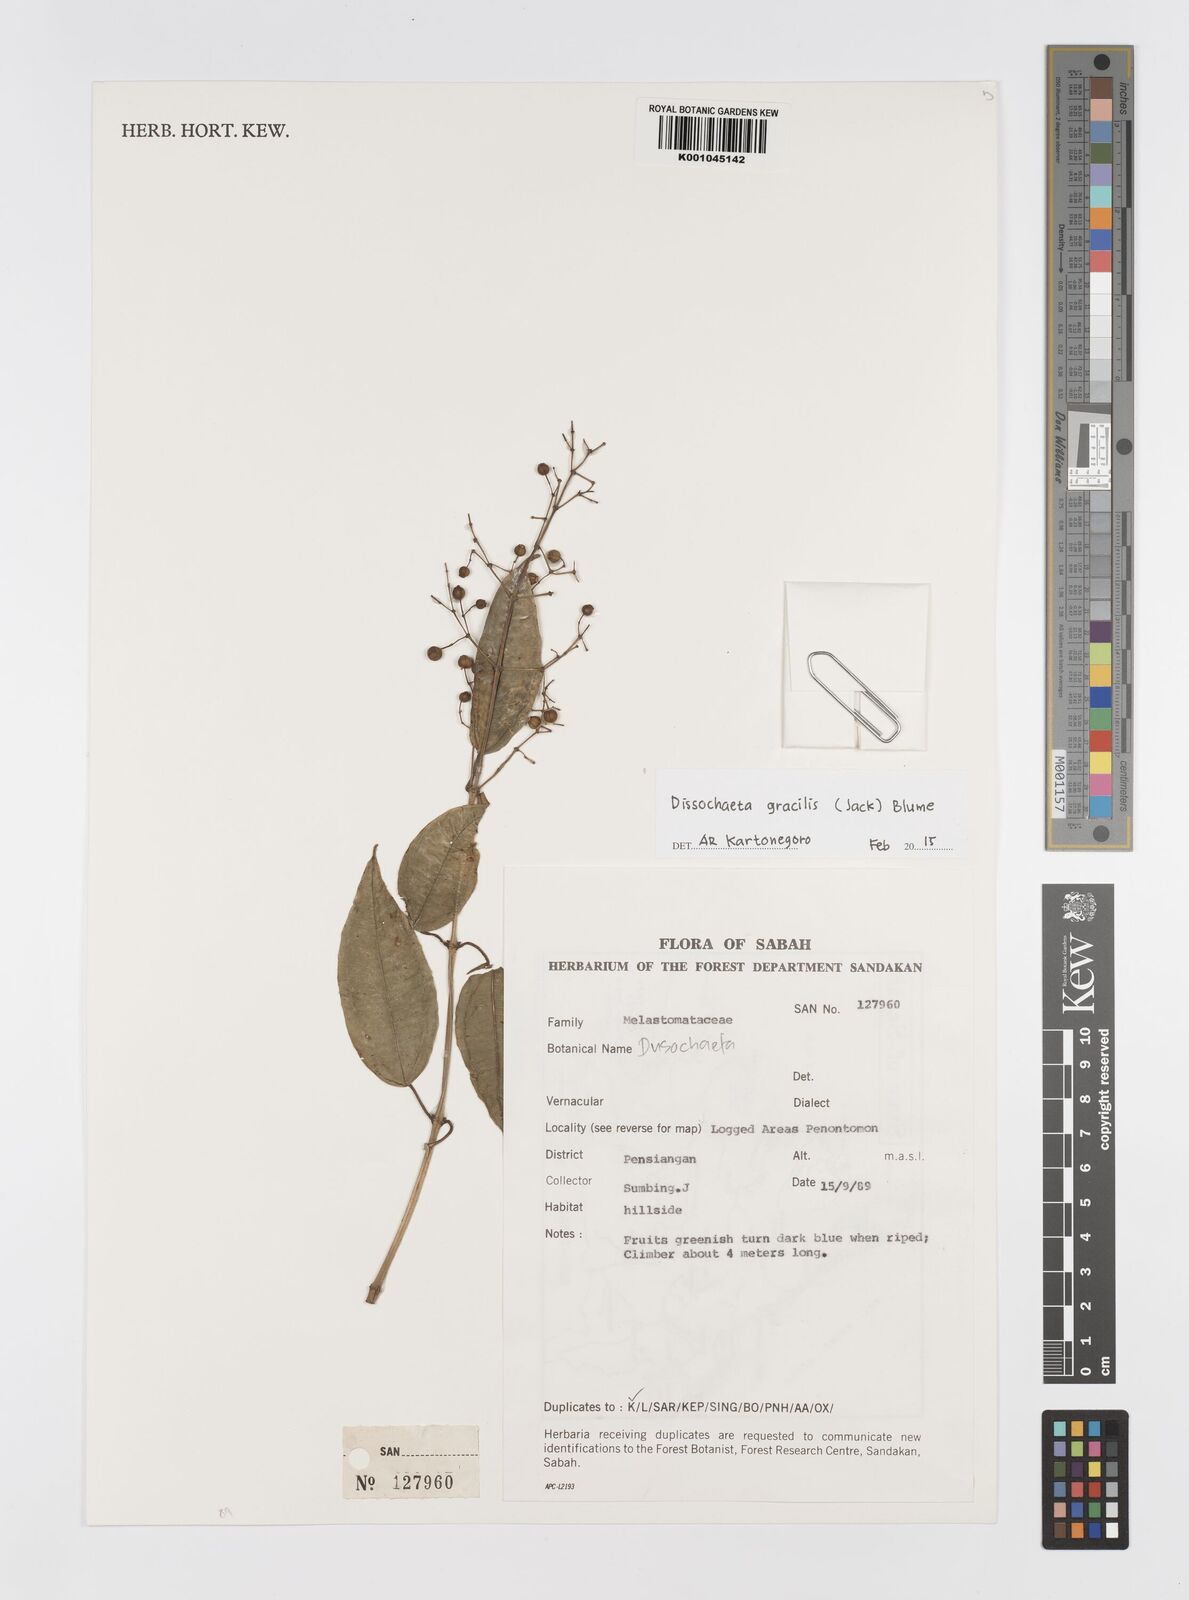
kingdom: Plantae
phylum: Tracheophyta
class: Magnoliopsida
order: Myrtales
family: Melastomataceae
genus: Dissochaeta
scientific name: Dissochaeta gracilis
